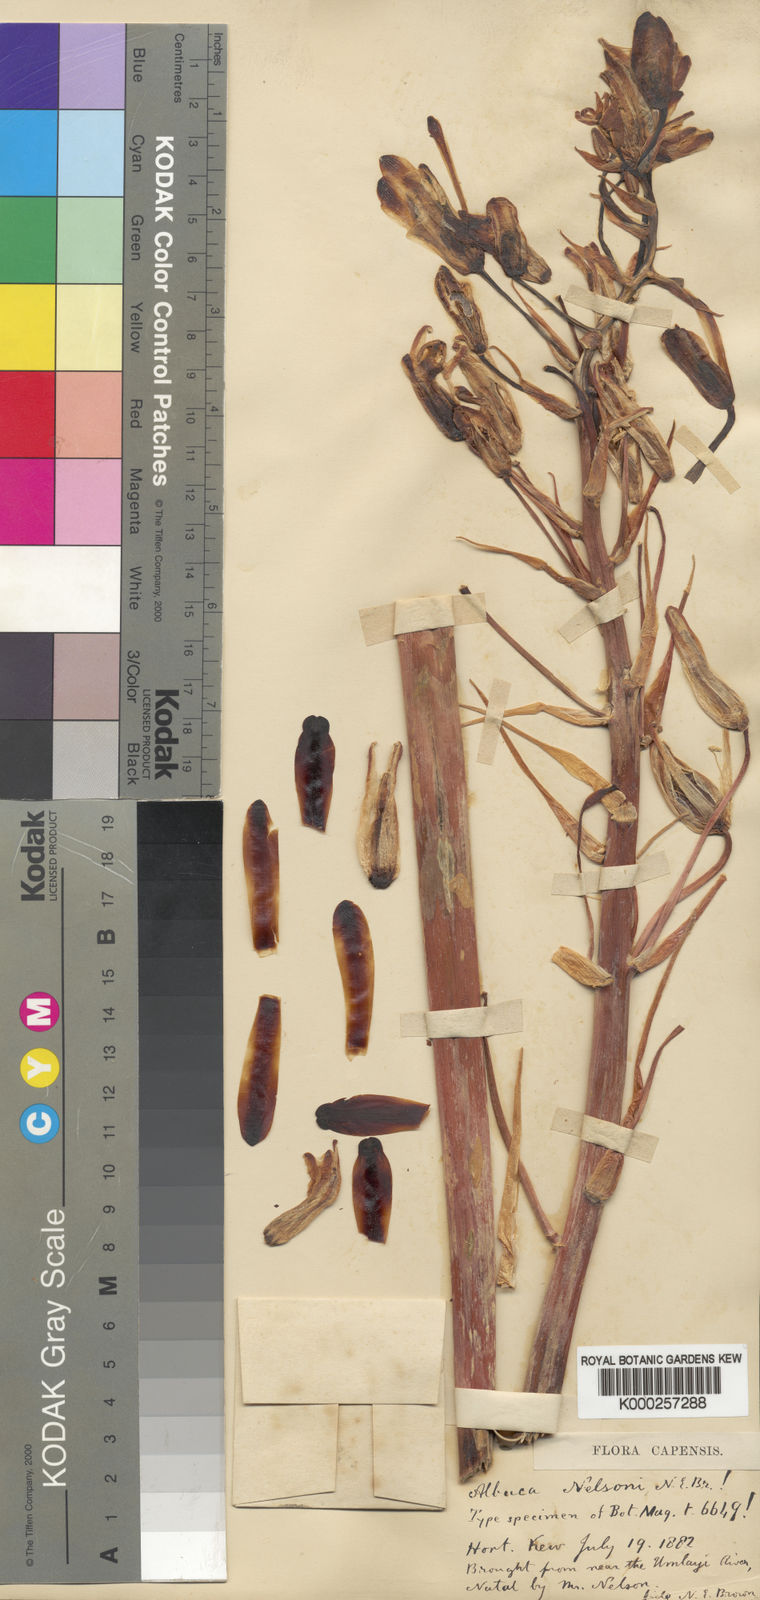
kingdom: Plantae
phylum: Tracheophyta
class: Liliopsida
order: Asparagales
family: Asparagaceae
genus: Albuca
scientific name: Albuca nelsonii
